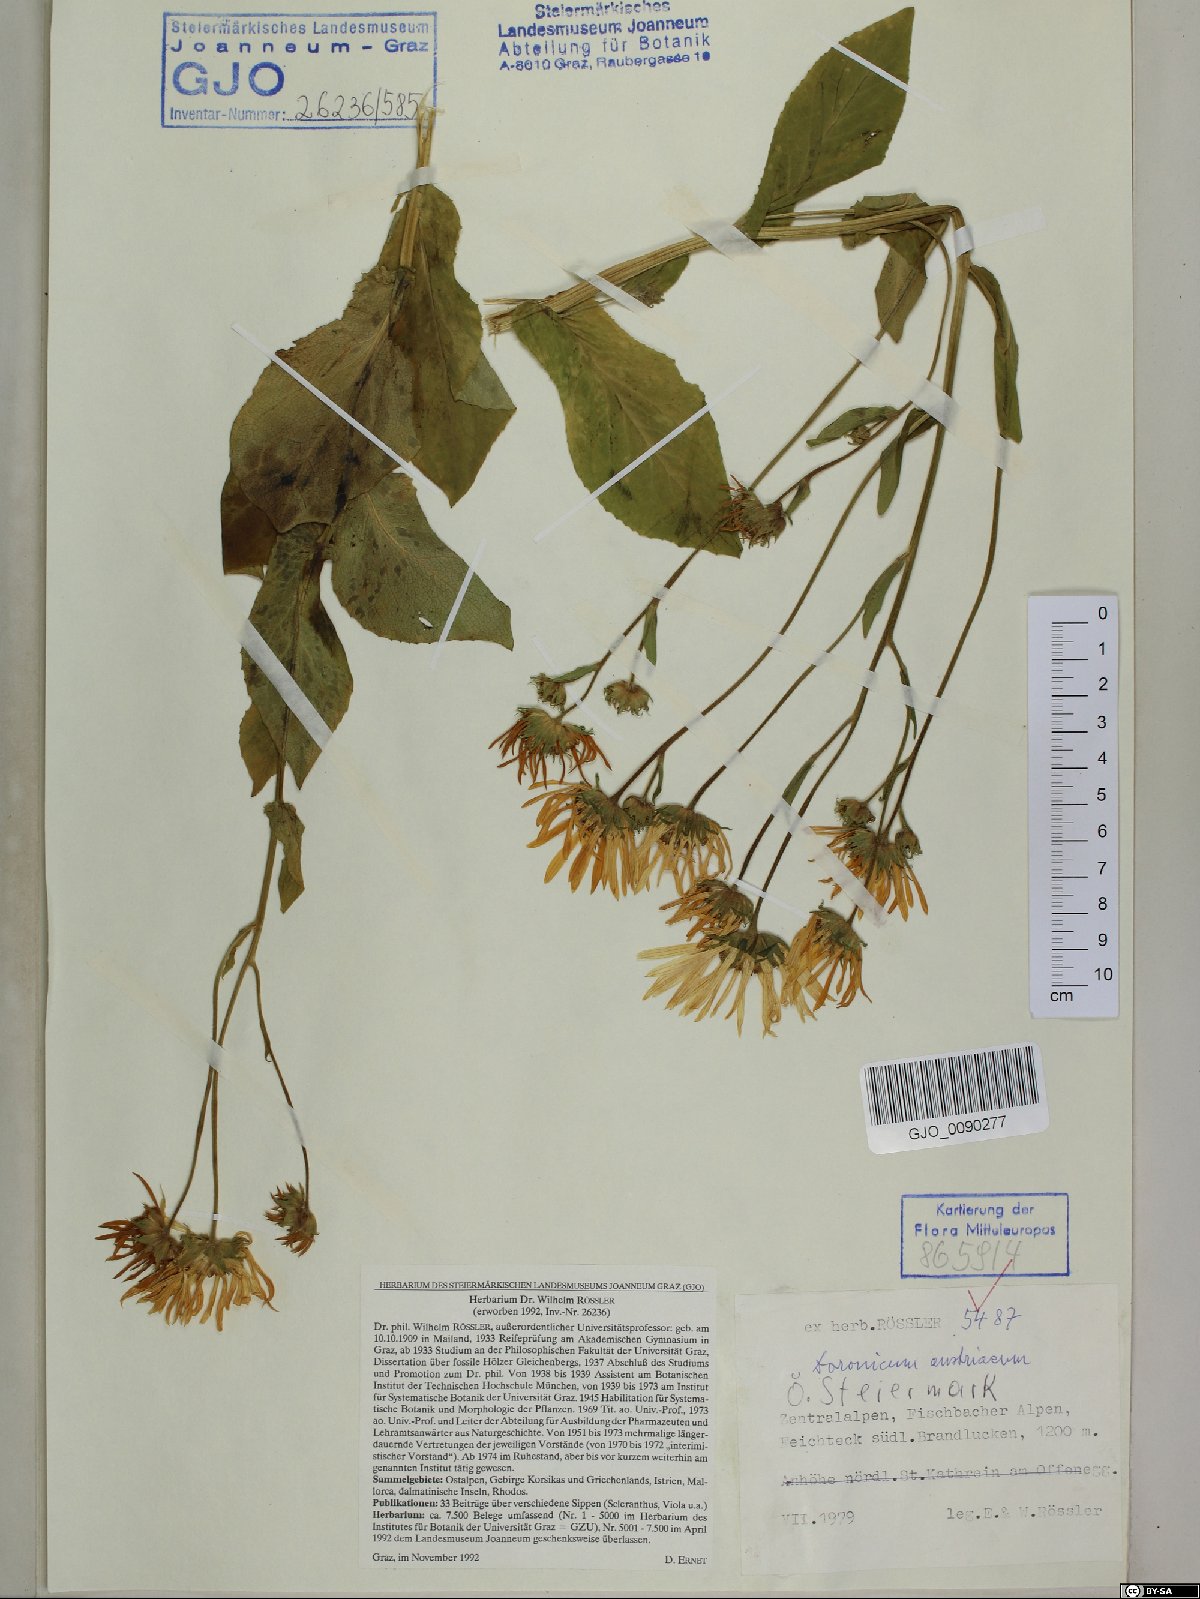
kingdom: Plantae
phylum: Tracheophyta
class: Magnoliopsida
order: Asterales
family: Asteraceae
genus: Doronicum
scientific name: Doronicum austriacum
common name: Austrian leopard's-bane
